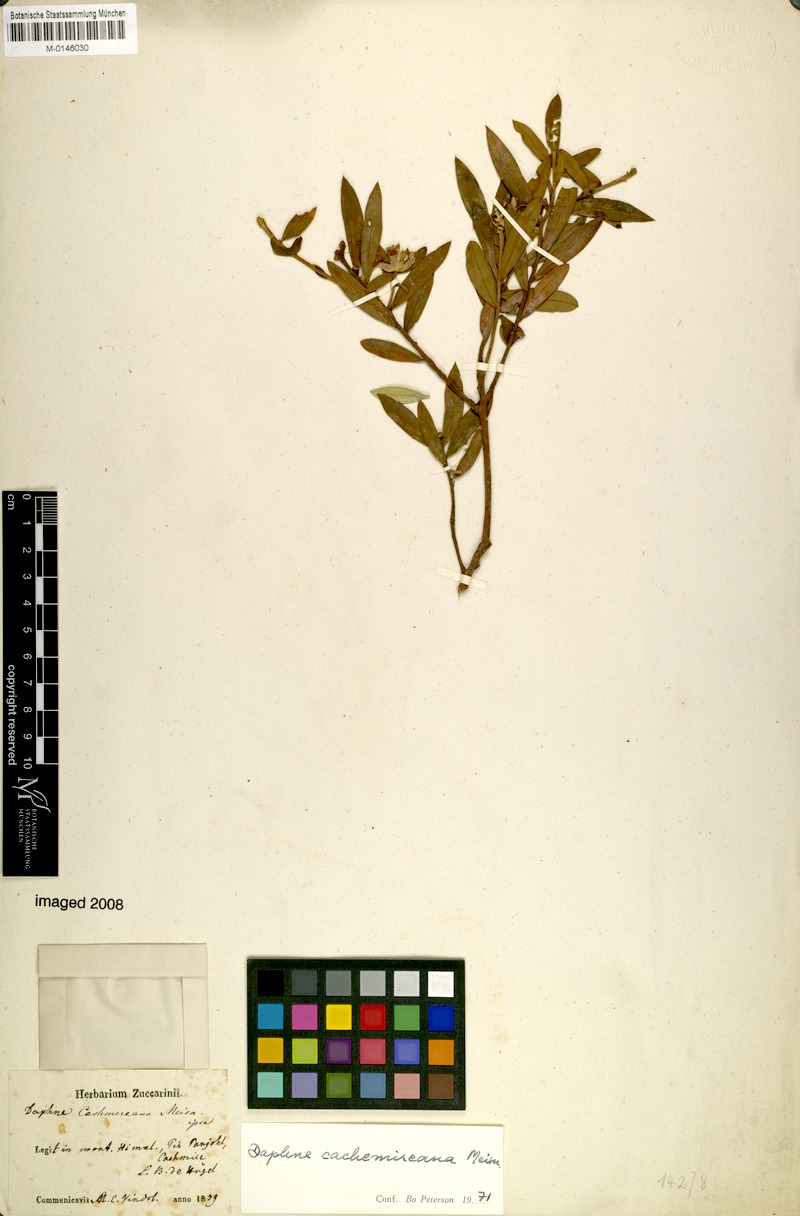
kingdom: Plantae
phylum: Tracheophyta
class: Magnoliopsida
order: Malvales
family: Thymelaeaceae
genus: Daphne
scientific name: Daphne mucronata
